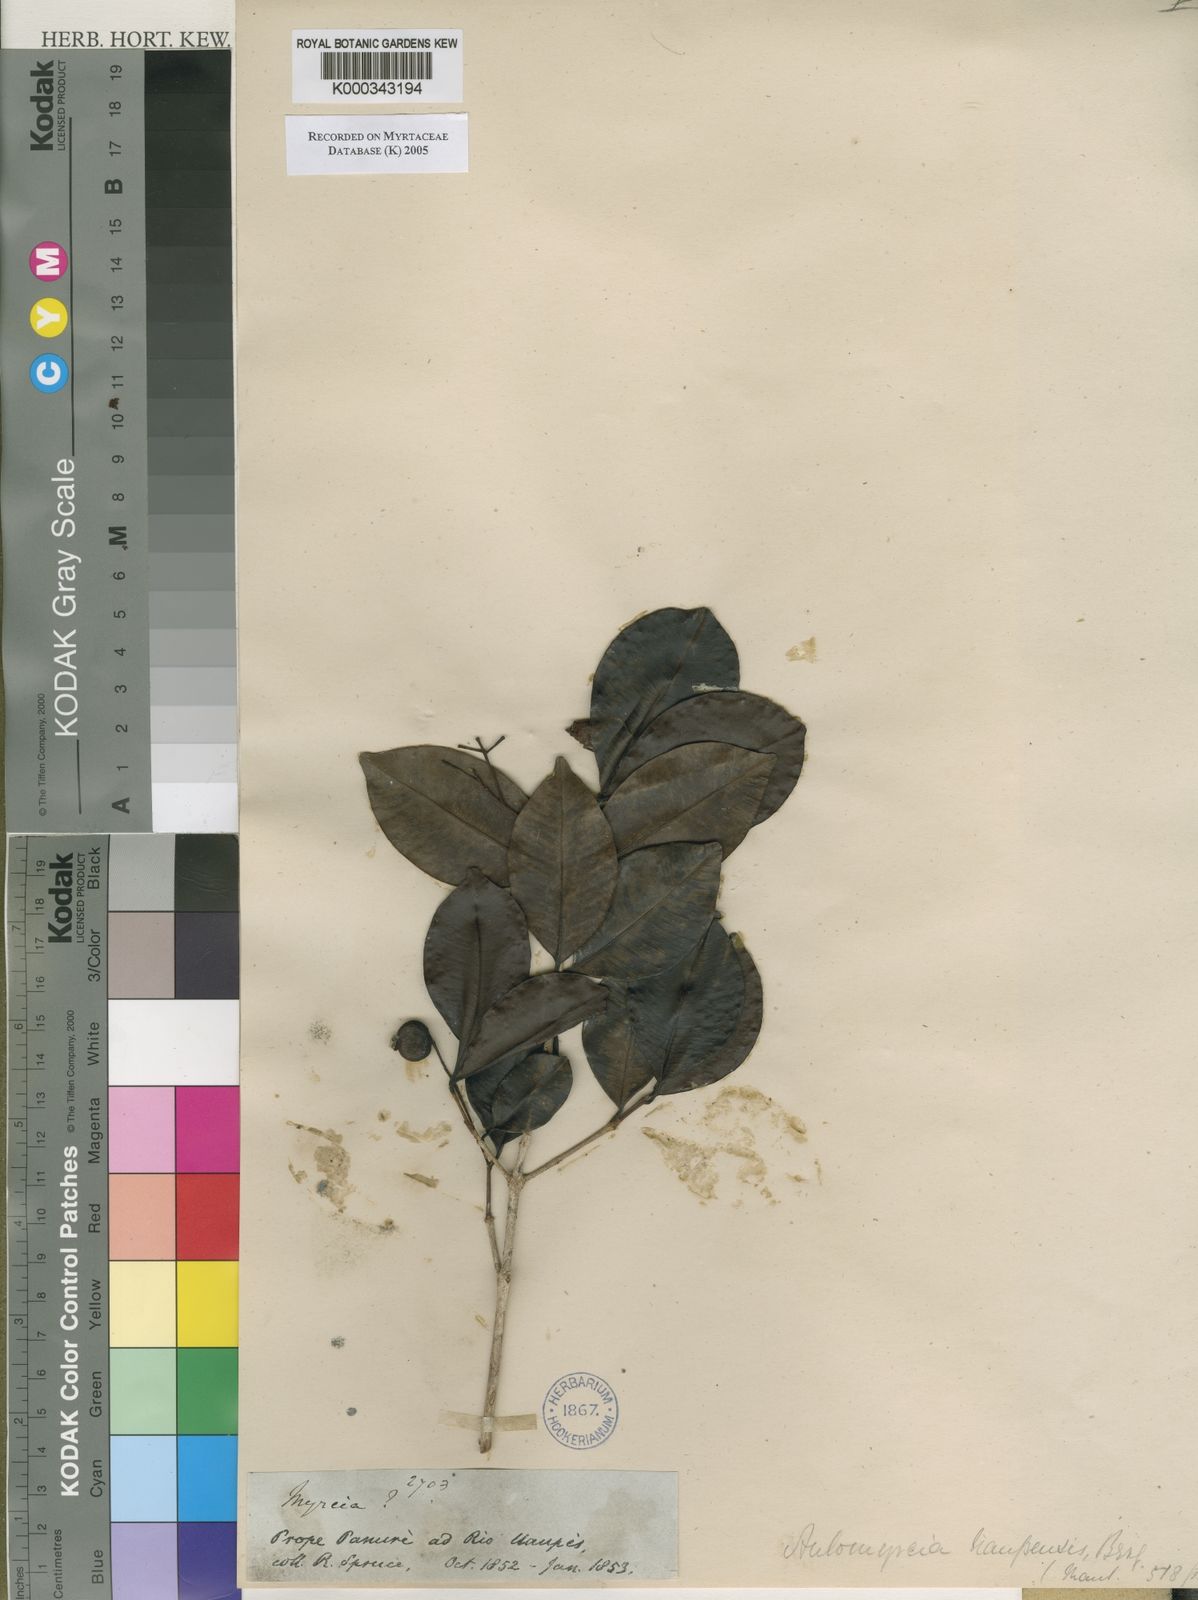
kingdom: Plantae
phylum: Tracheophyta
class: Magnoliopsida
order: Myrtales
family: Myrtaceae
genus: Myrcia
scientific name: Myrcia guianensis
